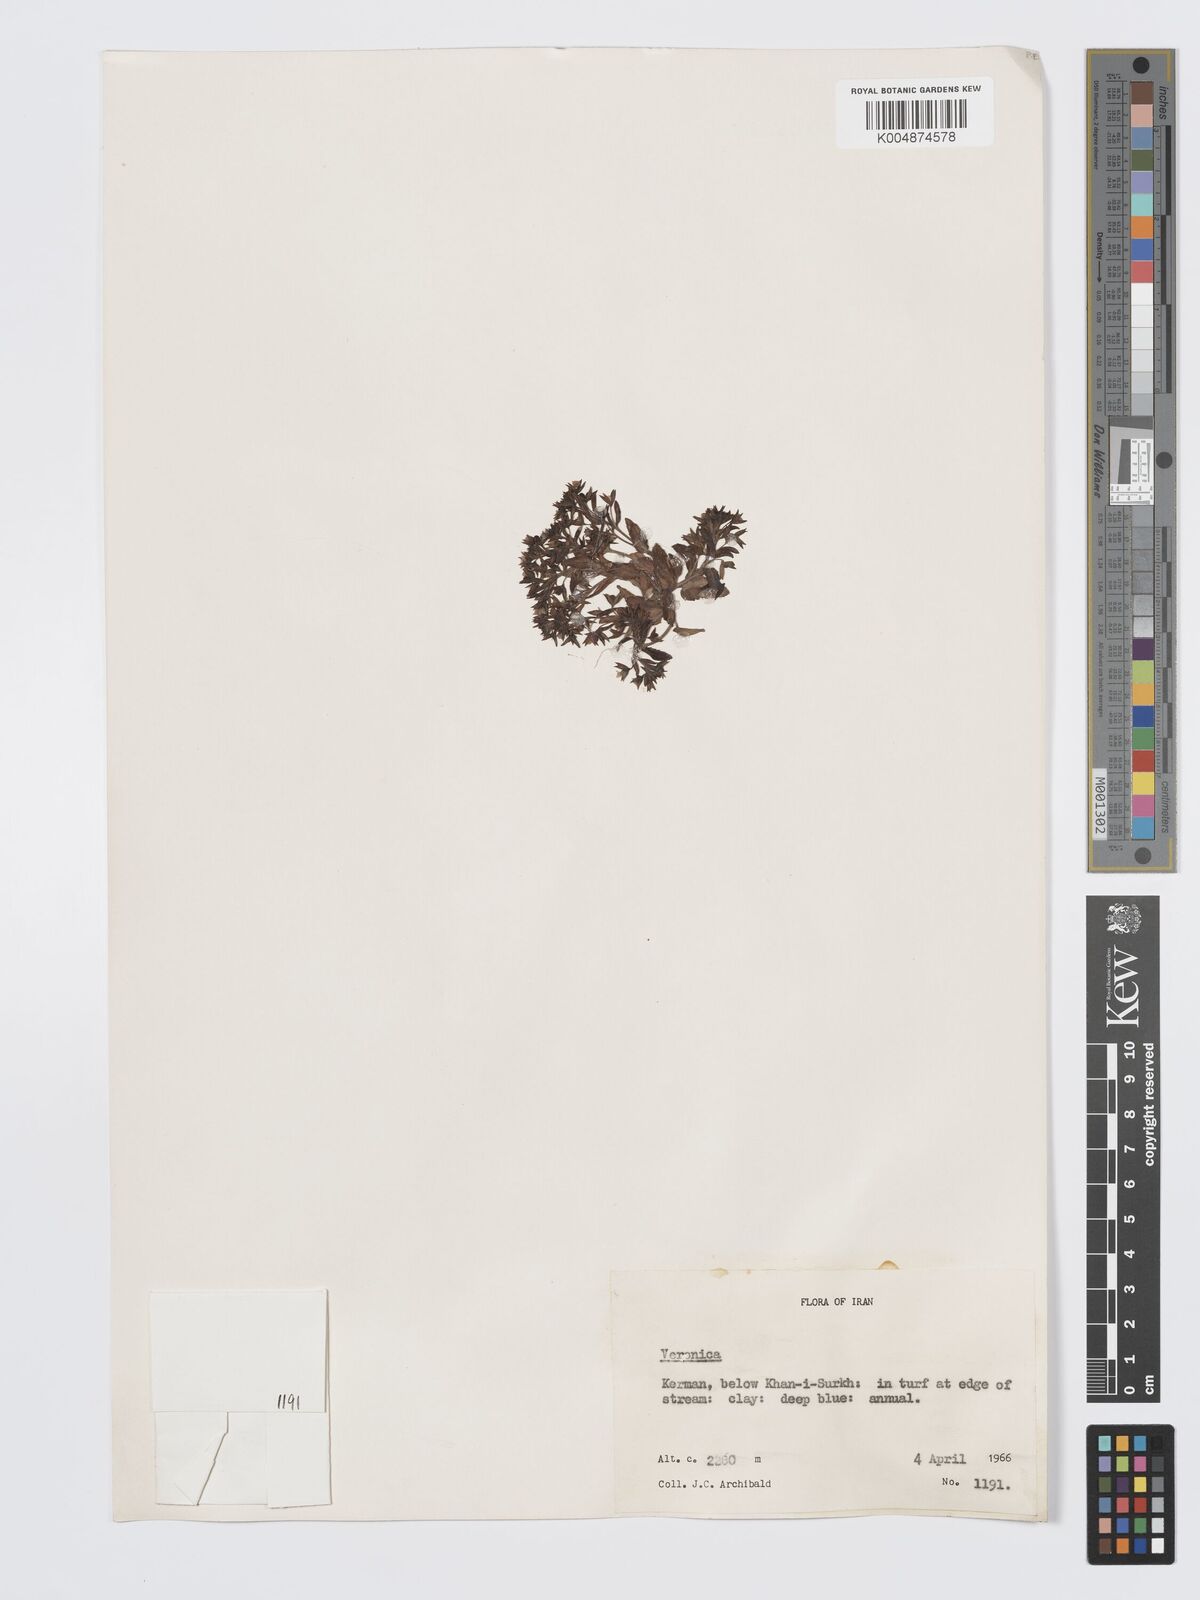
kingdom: Plantae
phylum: Tracheophyta
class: Magnoliopsida
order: Lamiales
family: Plantaginaceae
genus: Veronica
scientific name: Veronica
